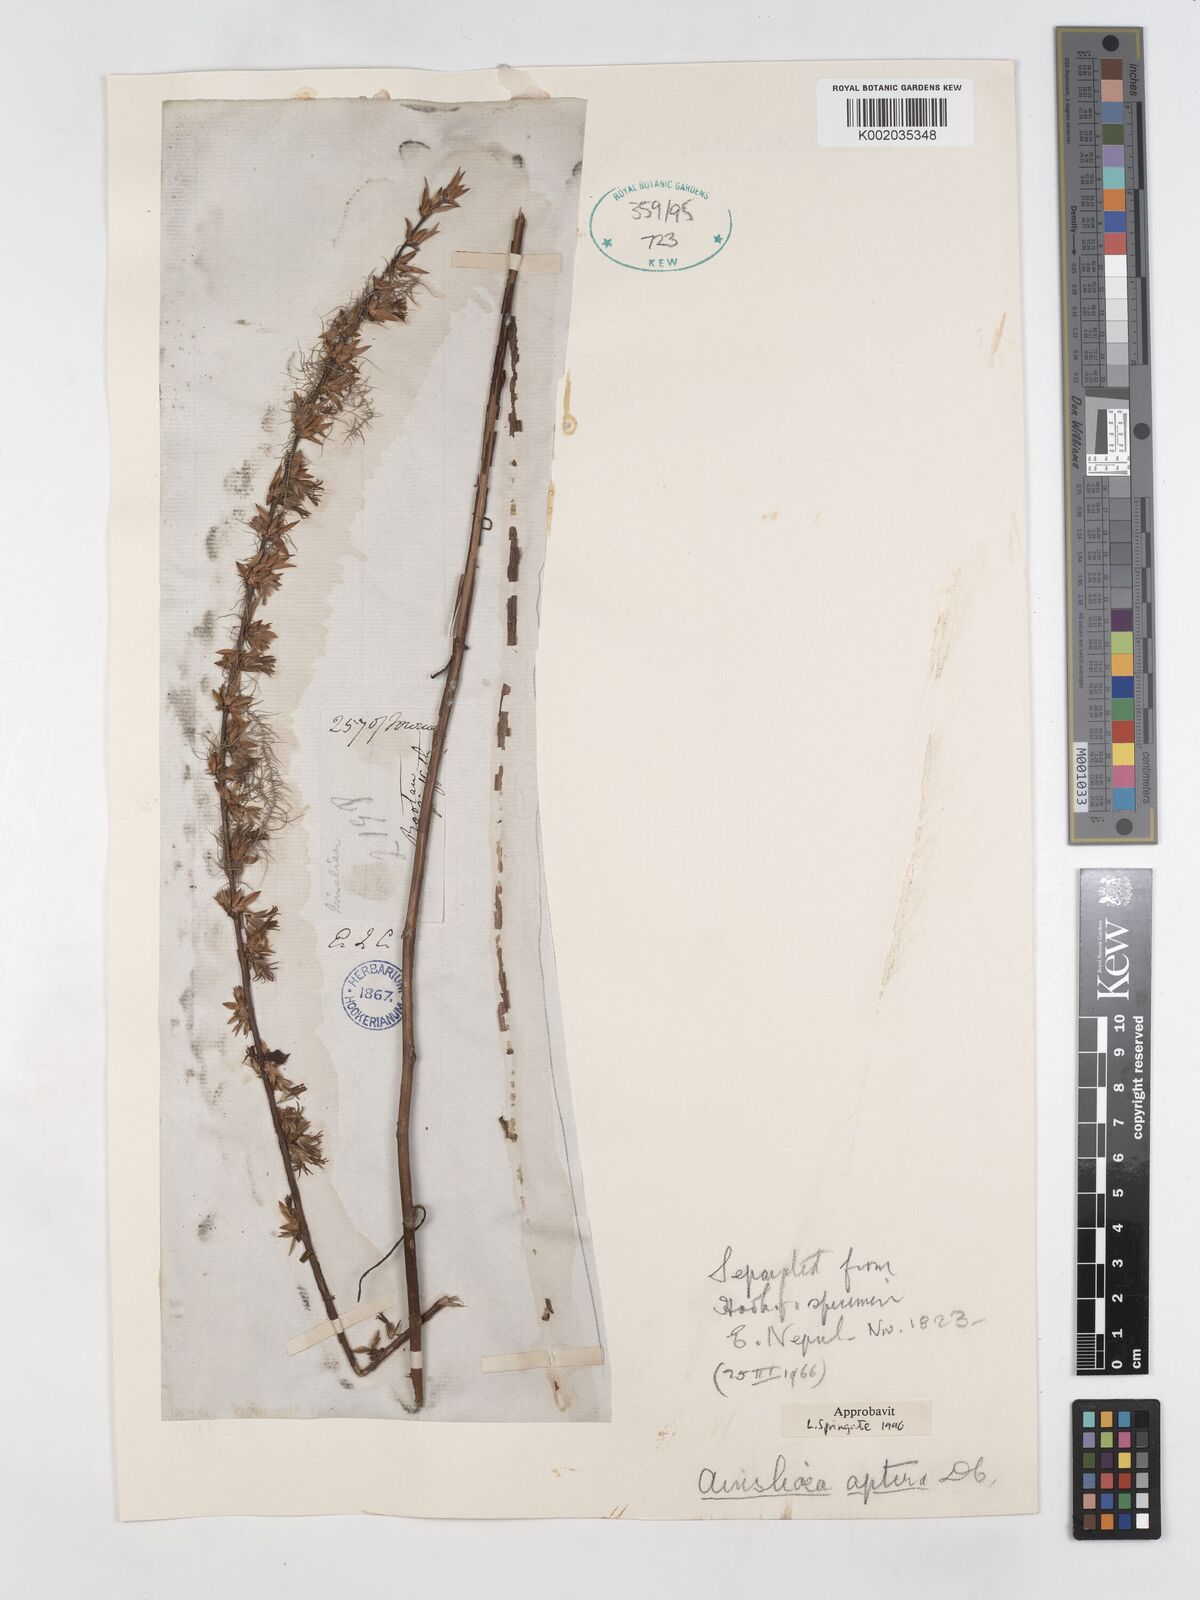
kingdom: Plantae
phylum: Tracheophyta
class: Magnoliopsida
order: Asterales
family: Asteraceae
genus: Ainsliaea
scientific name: Ainsliaea aptera
